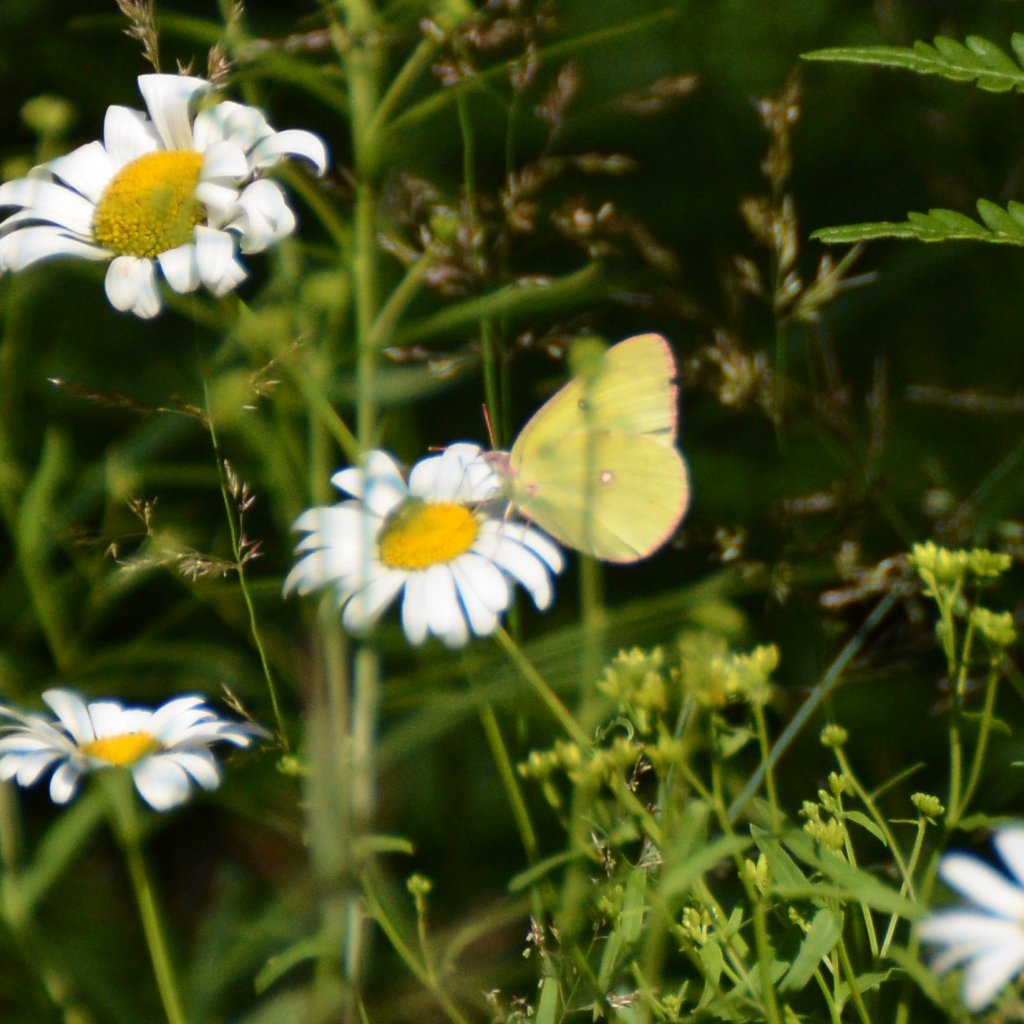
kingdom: Animalia
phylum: Arthropoda
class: Insecta
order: Lepidoptera
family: Pieridae
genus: Colias
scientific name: Colias interior
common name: Pink-edged Sulphur
